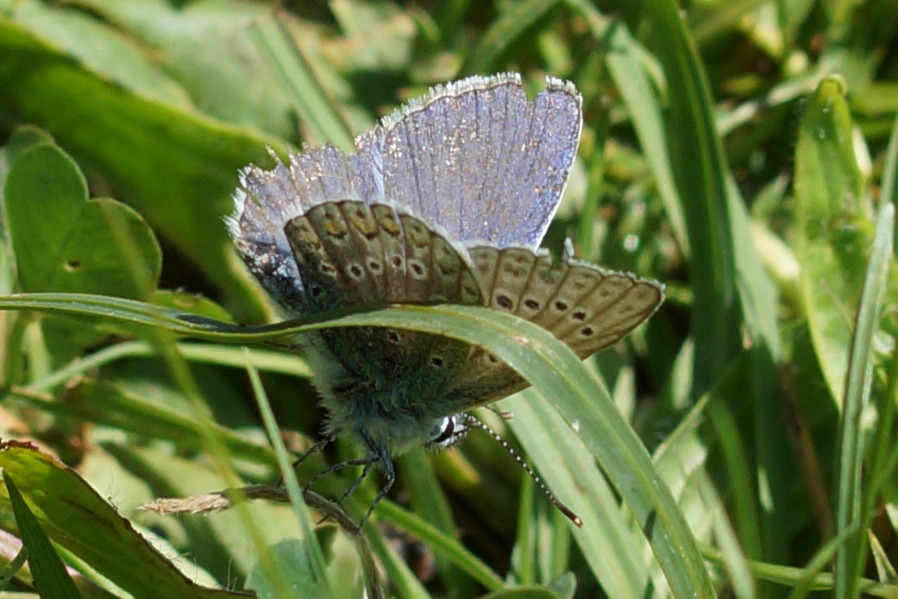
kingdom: Animalia
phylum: Arthropoda
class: Insecta
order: Lepidoptera
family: Lycaenidae
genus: Polyommatus
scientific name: Polyommatus icarus
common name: Almindelig blåfugl
